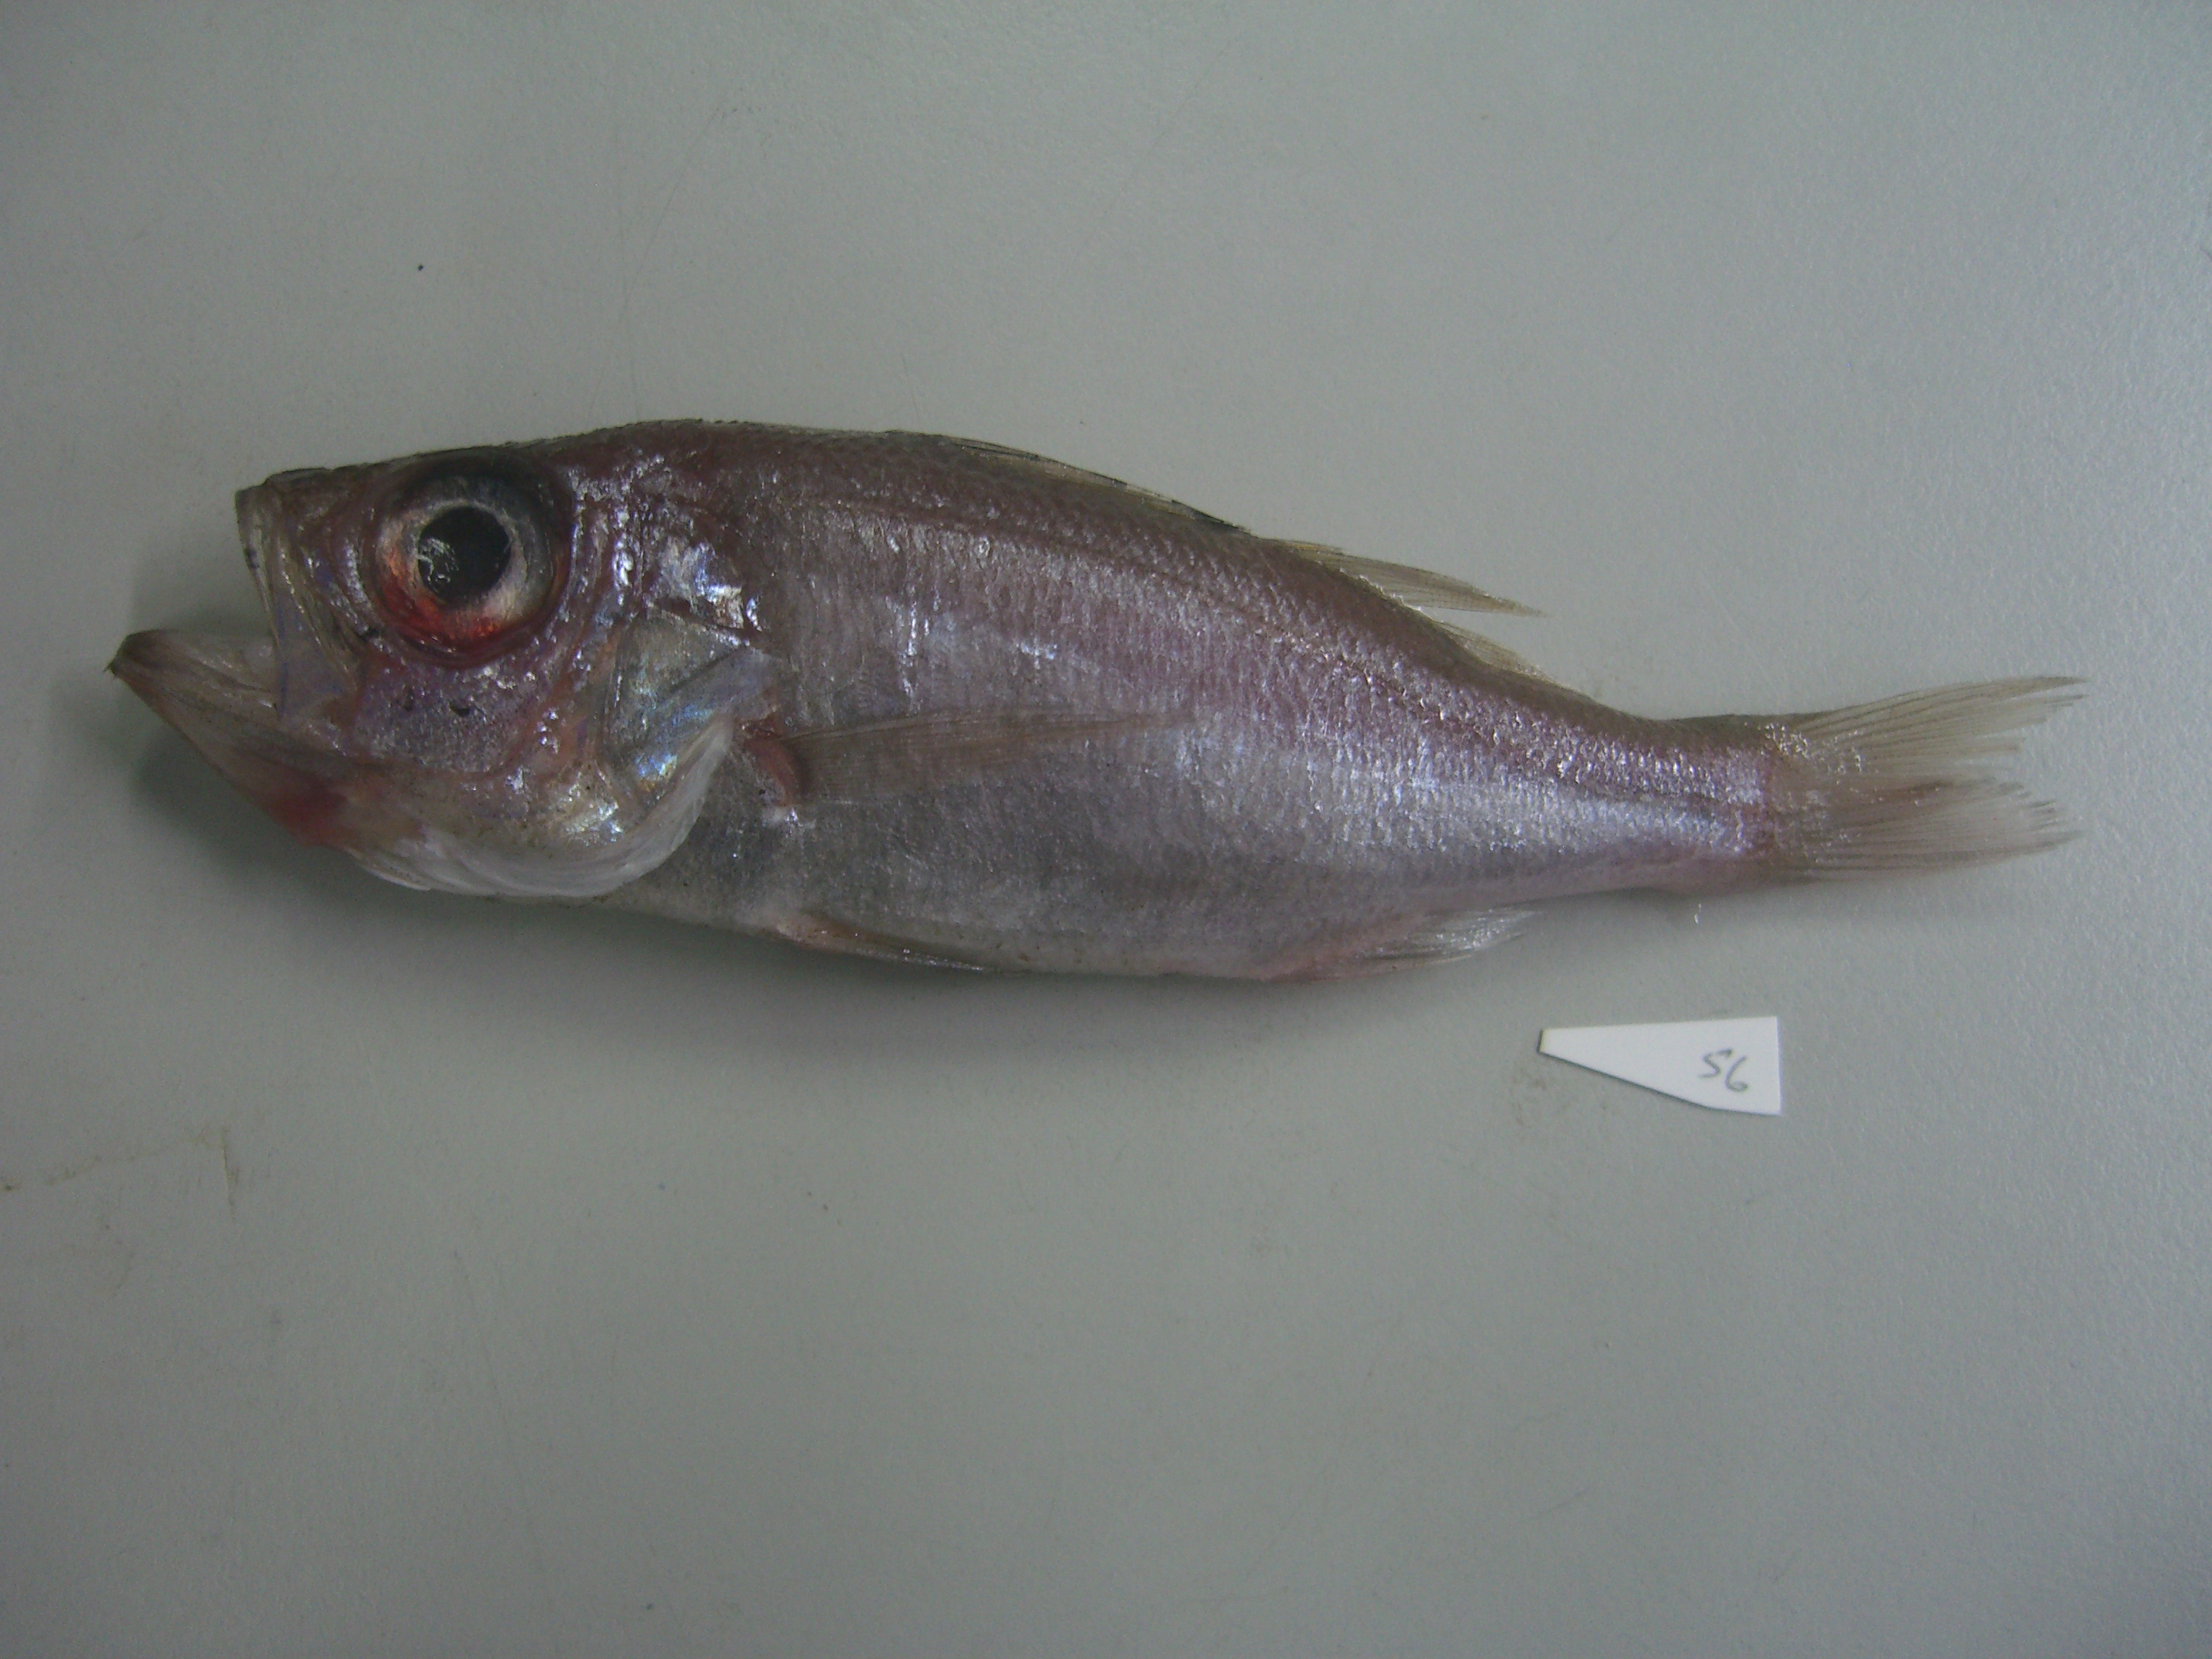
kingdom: Animalia
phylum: Chordata
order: Perciformes
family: Acropomatidae
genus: Malakichthys
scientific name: Malakichthys wakiyae
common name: Silverbelly seaperch
